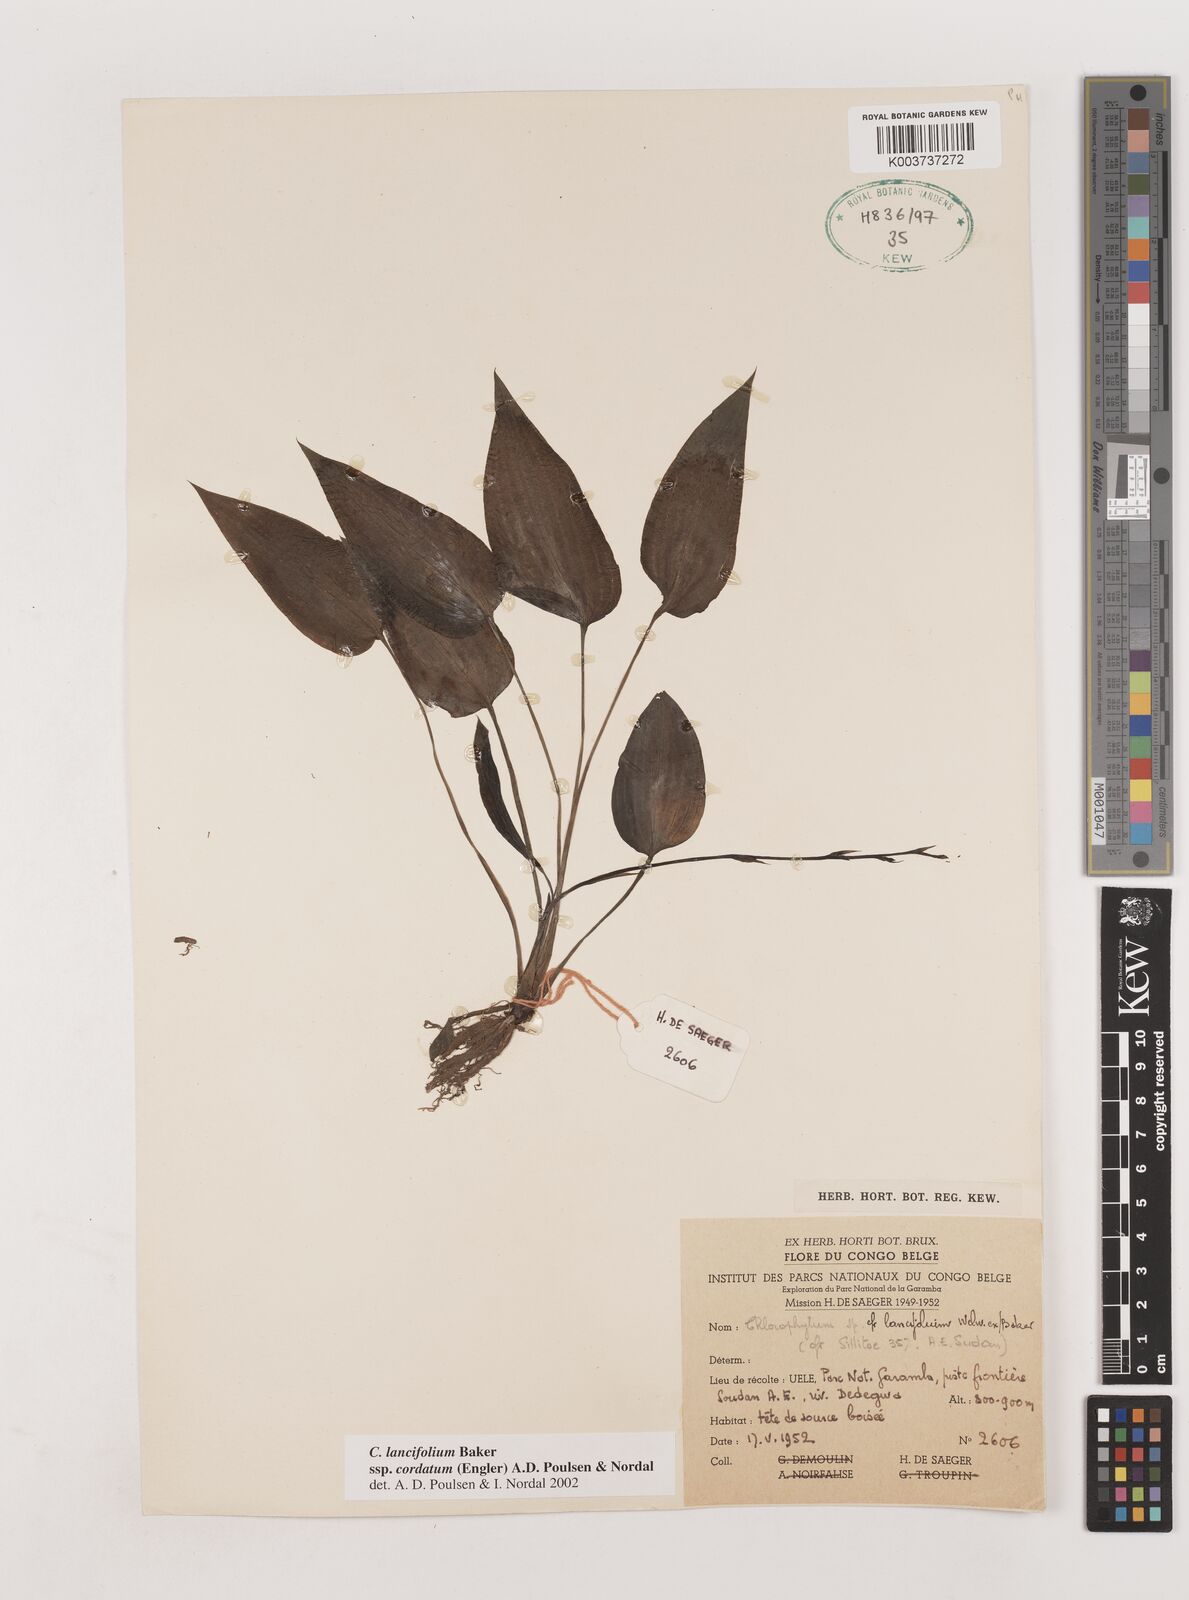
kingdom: Plantae
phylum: Tracheophyta
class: Liliopsida
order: Asparagales
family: Asparagaceae
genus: Chlorophytum
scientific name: Chlorophytum lancifolium
